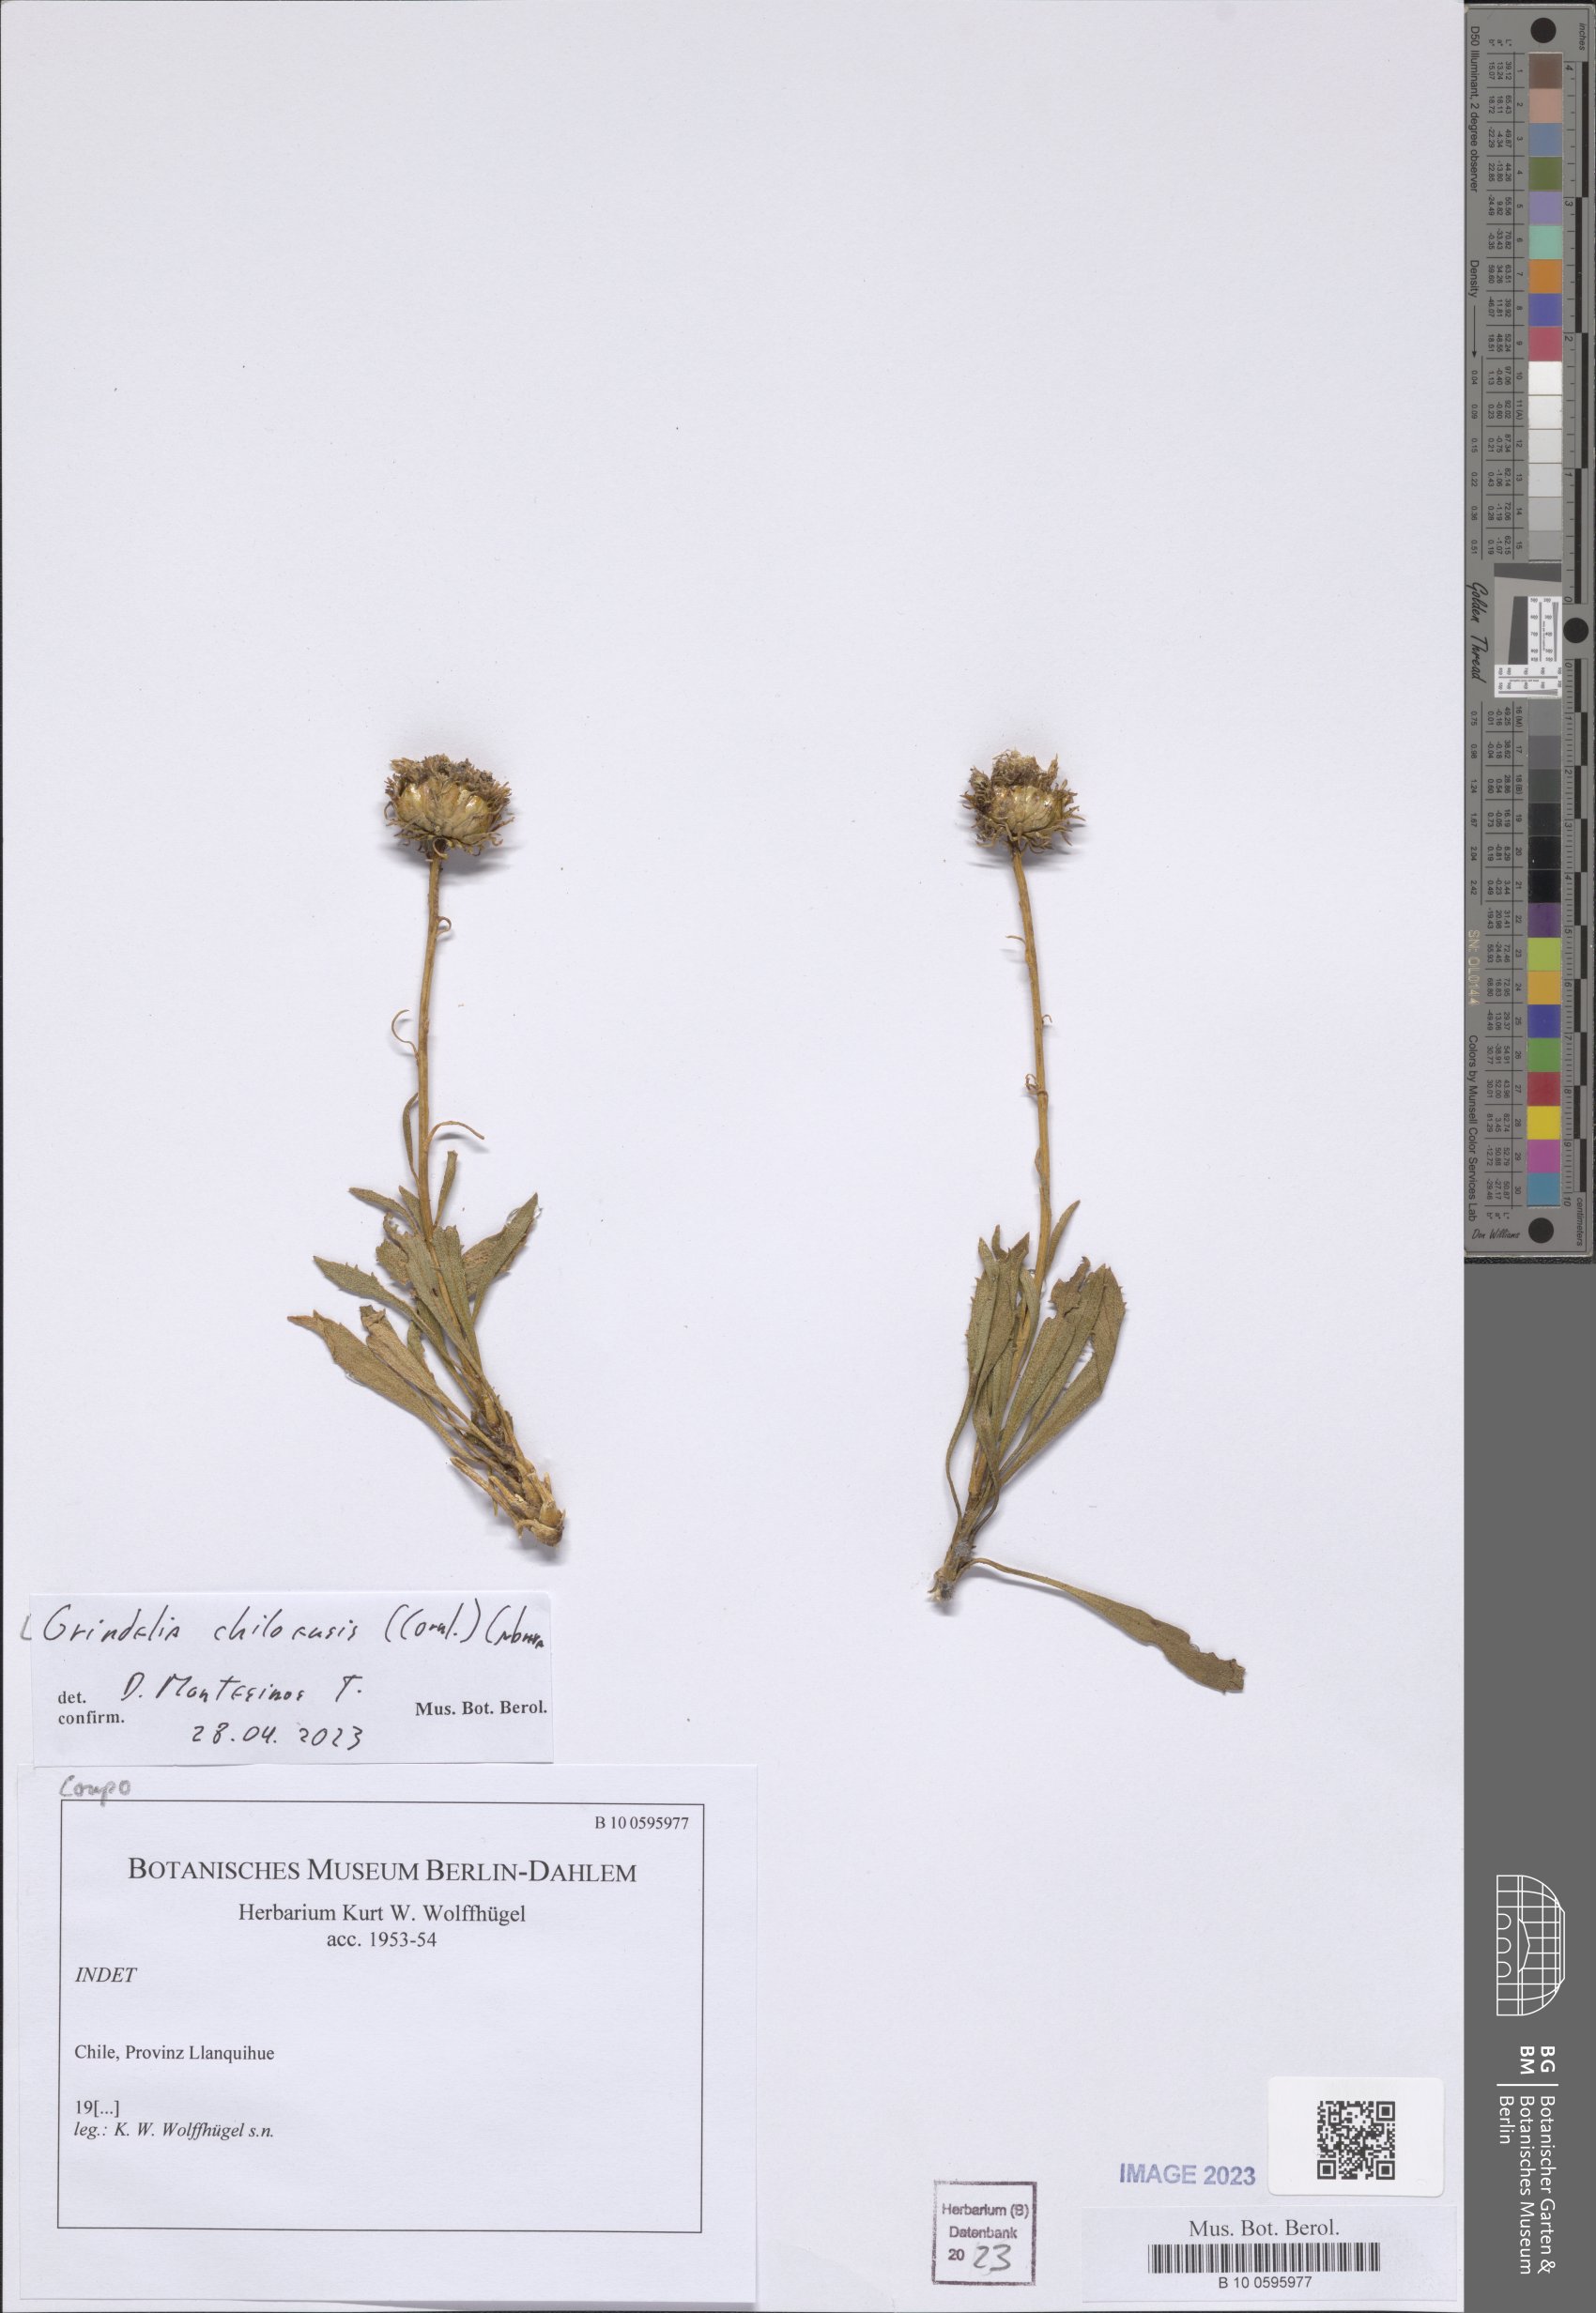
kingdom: Plantae
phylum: Tracheophyta
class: Magnoliopsida
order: Asterales
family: Asteraceae
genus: Grindelia
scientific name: Grindelia chiloensis
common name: Shrubby gumweed
